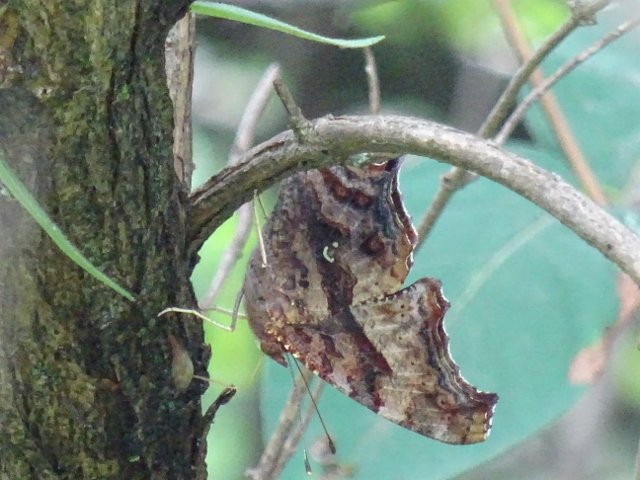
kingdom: Animalia
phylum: Arthropoda
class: Insecta
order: Lepidoptera
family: Nymphalidae
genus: Polygonia
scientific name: Polygonia interrogationis
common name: Question Mark
